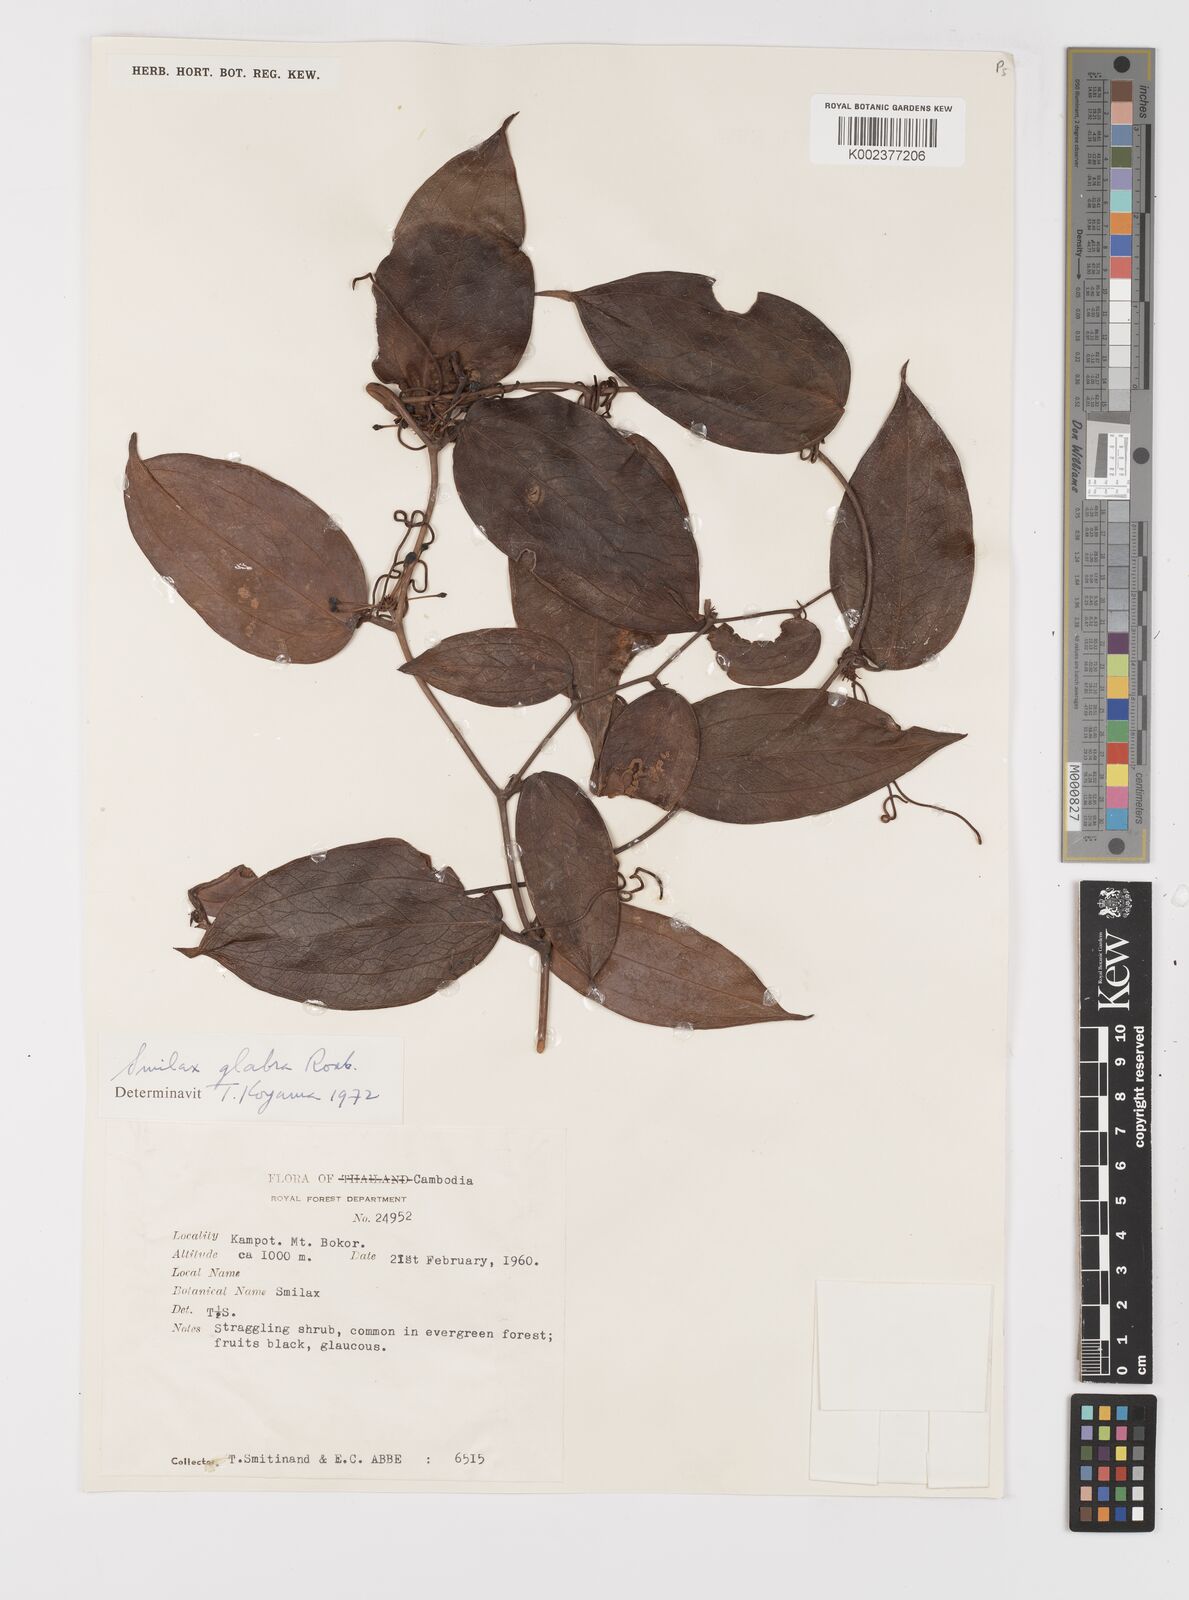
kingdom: Plantae
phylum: Tracheophyta
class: Liliopsida
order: Liliales
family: Smilacaceae
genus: Smilax
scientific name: Smilax glabra
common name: Chinese smilax
